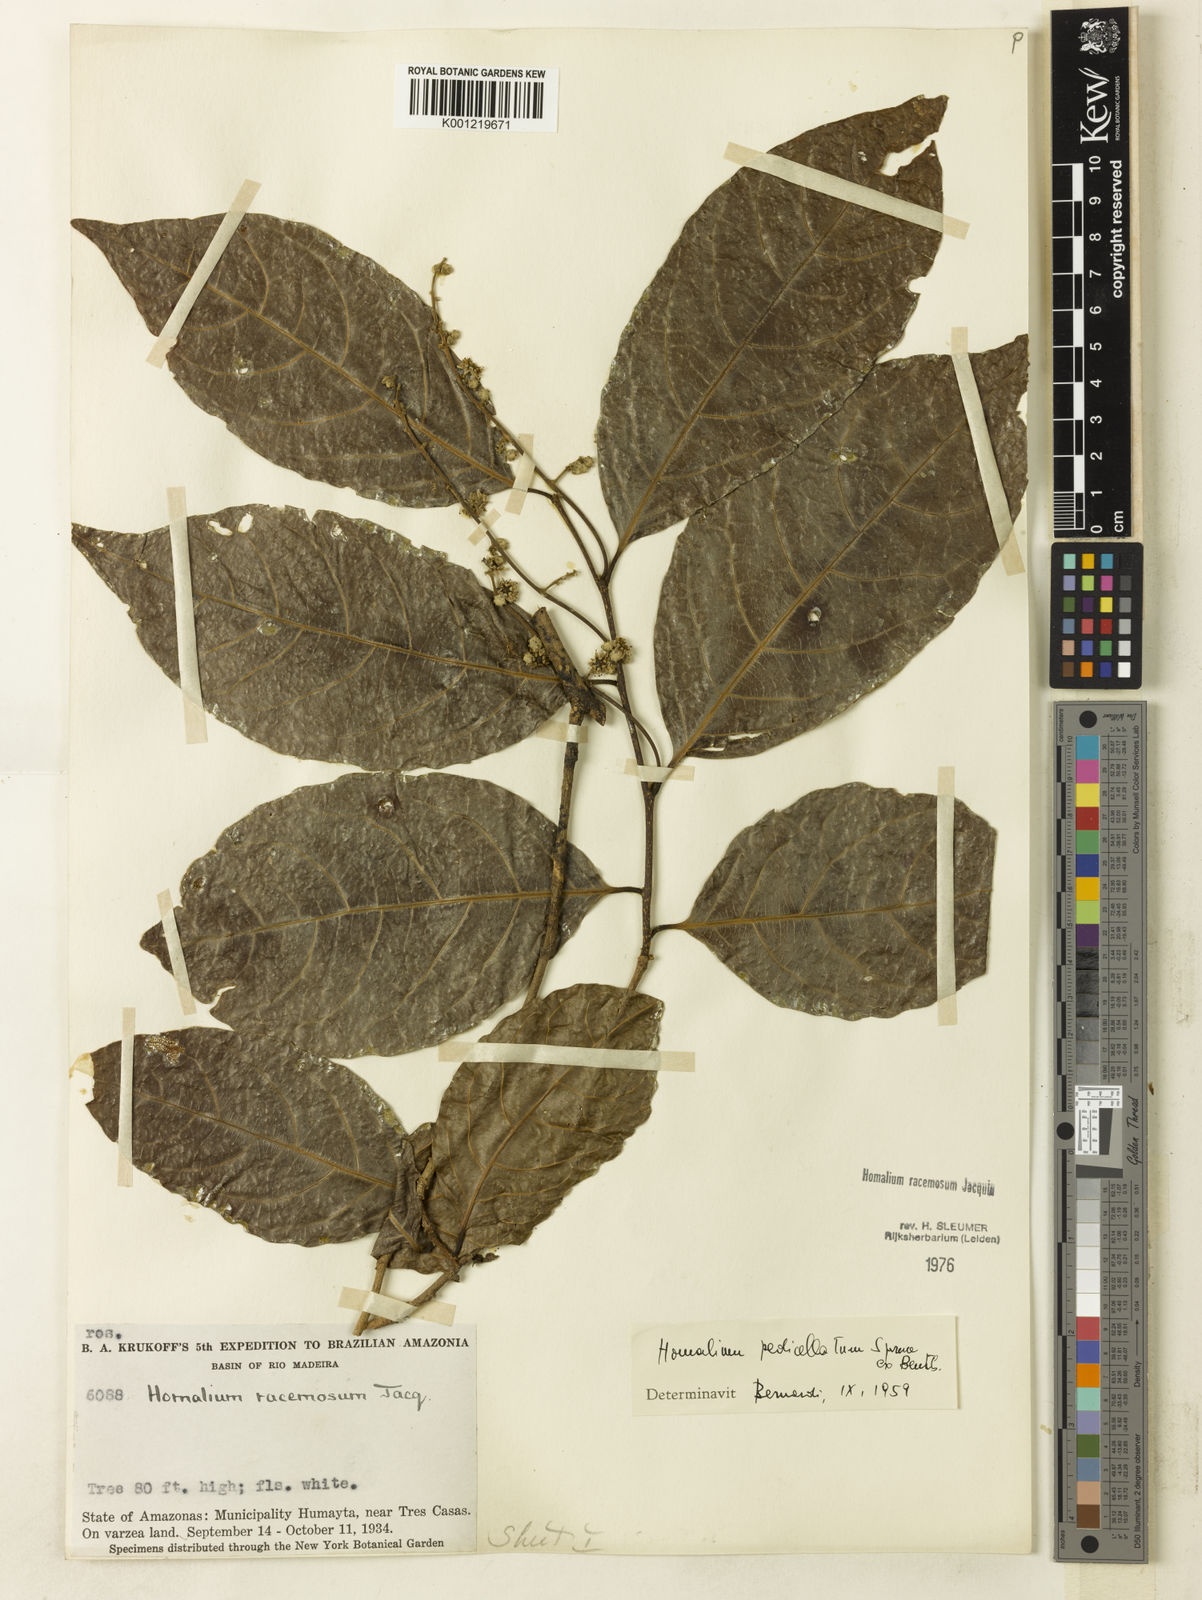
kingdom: Plantae
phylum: Tracheophyta
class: Magnoliopsida
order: Malpighiales
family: Salicaceae
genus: Homalium
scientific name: Homalium racemosum
